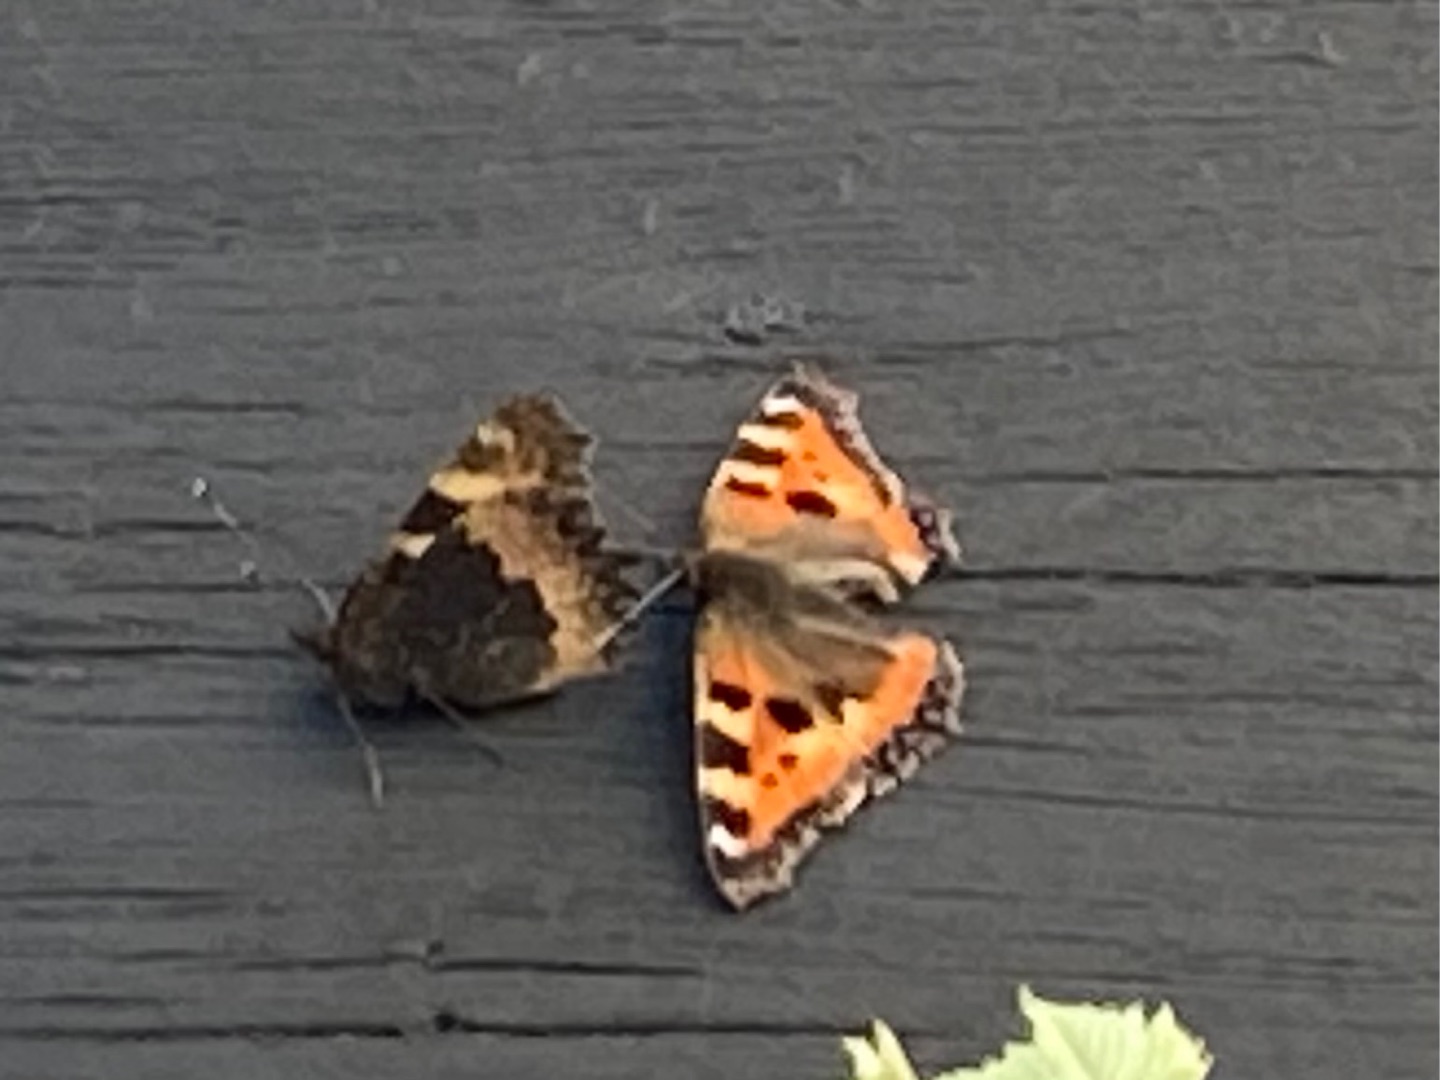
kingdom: Animalia
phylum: Arthropoda
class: Insecta
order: Lepidoptera
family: Nymphalidae
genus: Aglais
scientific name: Aglais urticae
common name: Nældens takvinge
